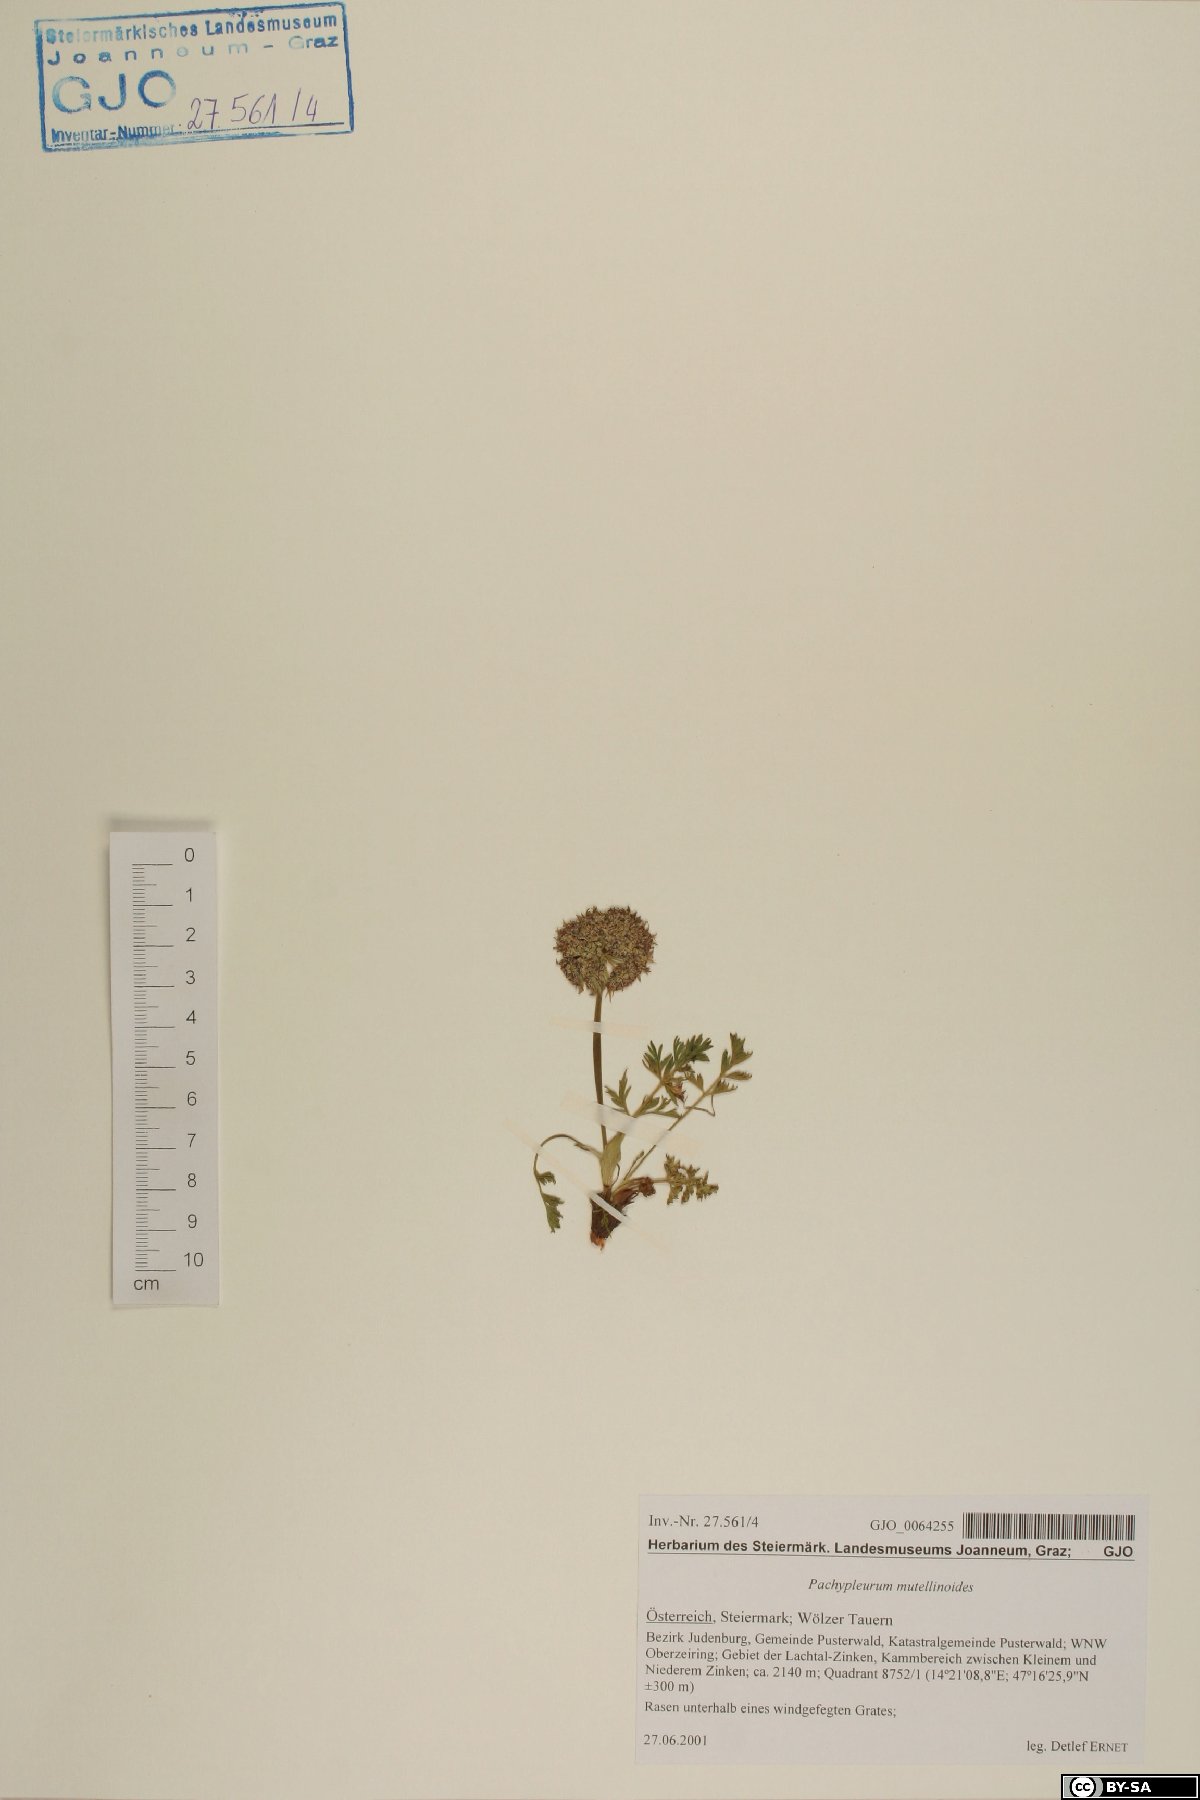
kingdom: Plantae
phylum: Tracheophyta
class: Magnoliopsida
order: Apiales
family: Apiaceae
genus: Pachypleurum
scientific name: Pachypleurum mutellinoides
